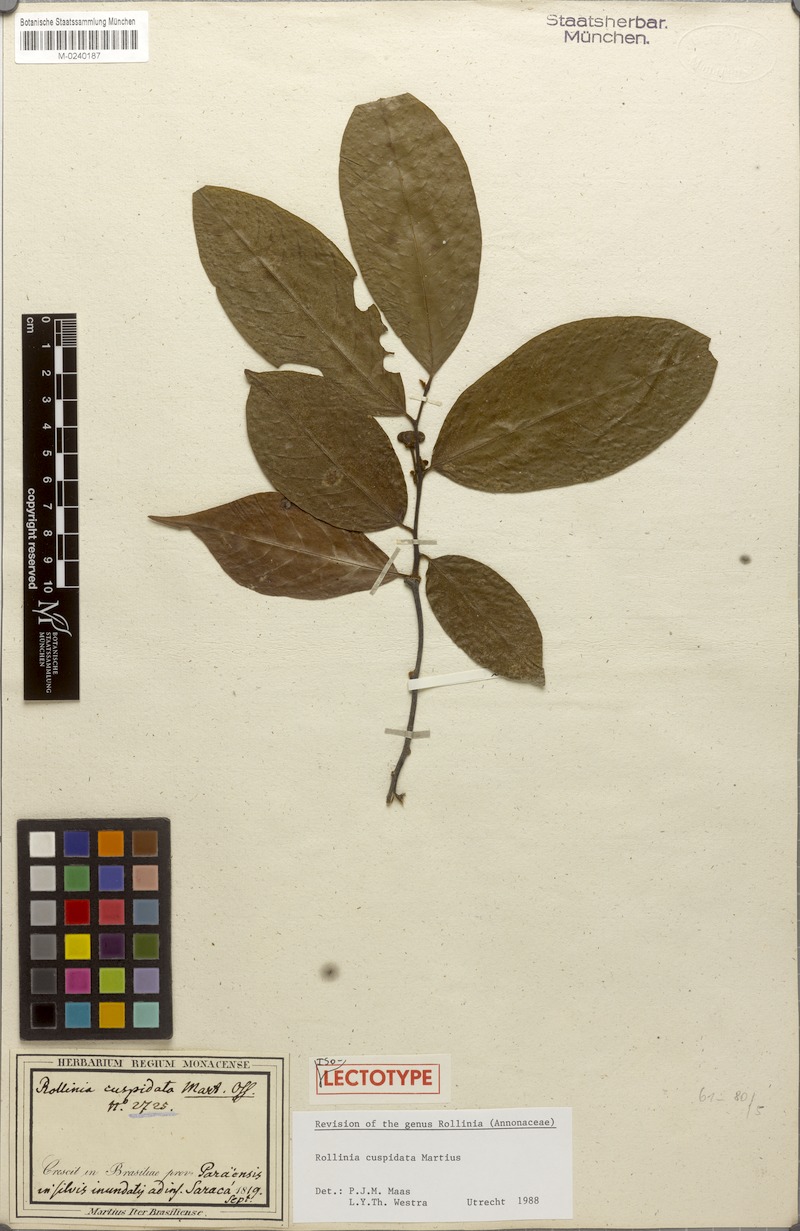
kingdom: Plantae
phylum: Tracheophyta
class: Magnoliopsida
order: Magnoliales
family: Annonaceae
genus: Annona
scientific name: Annona cuspidata
